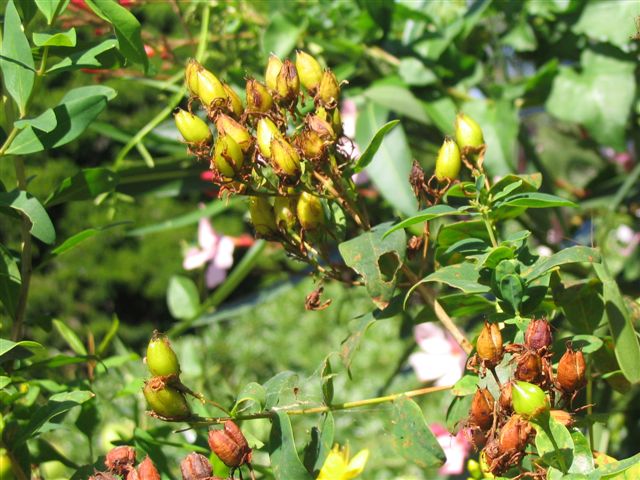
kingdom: Plantae
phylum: Tracheophyta
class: Magnoliopsida
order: Malpighiales
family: Hypericaceae
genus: Hypericum
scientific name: Hypericum canariense
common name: Canary island st. johnswort
